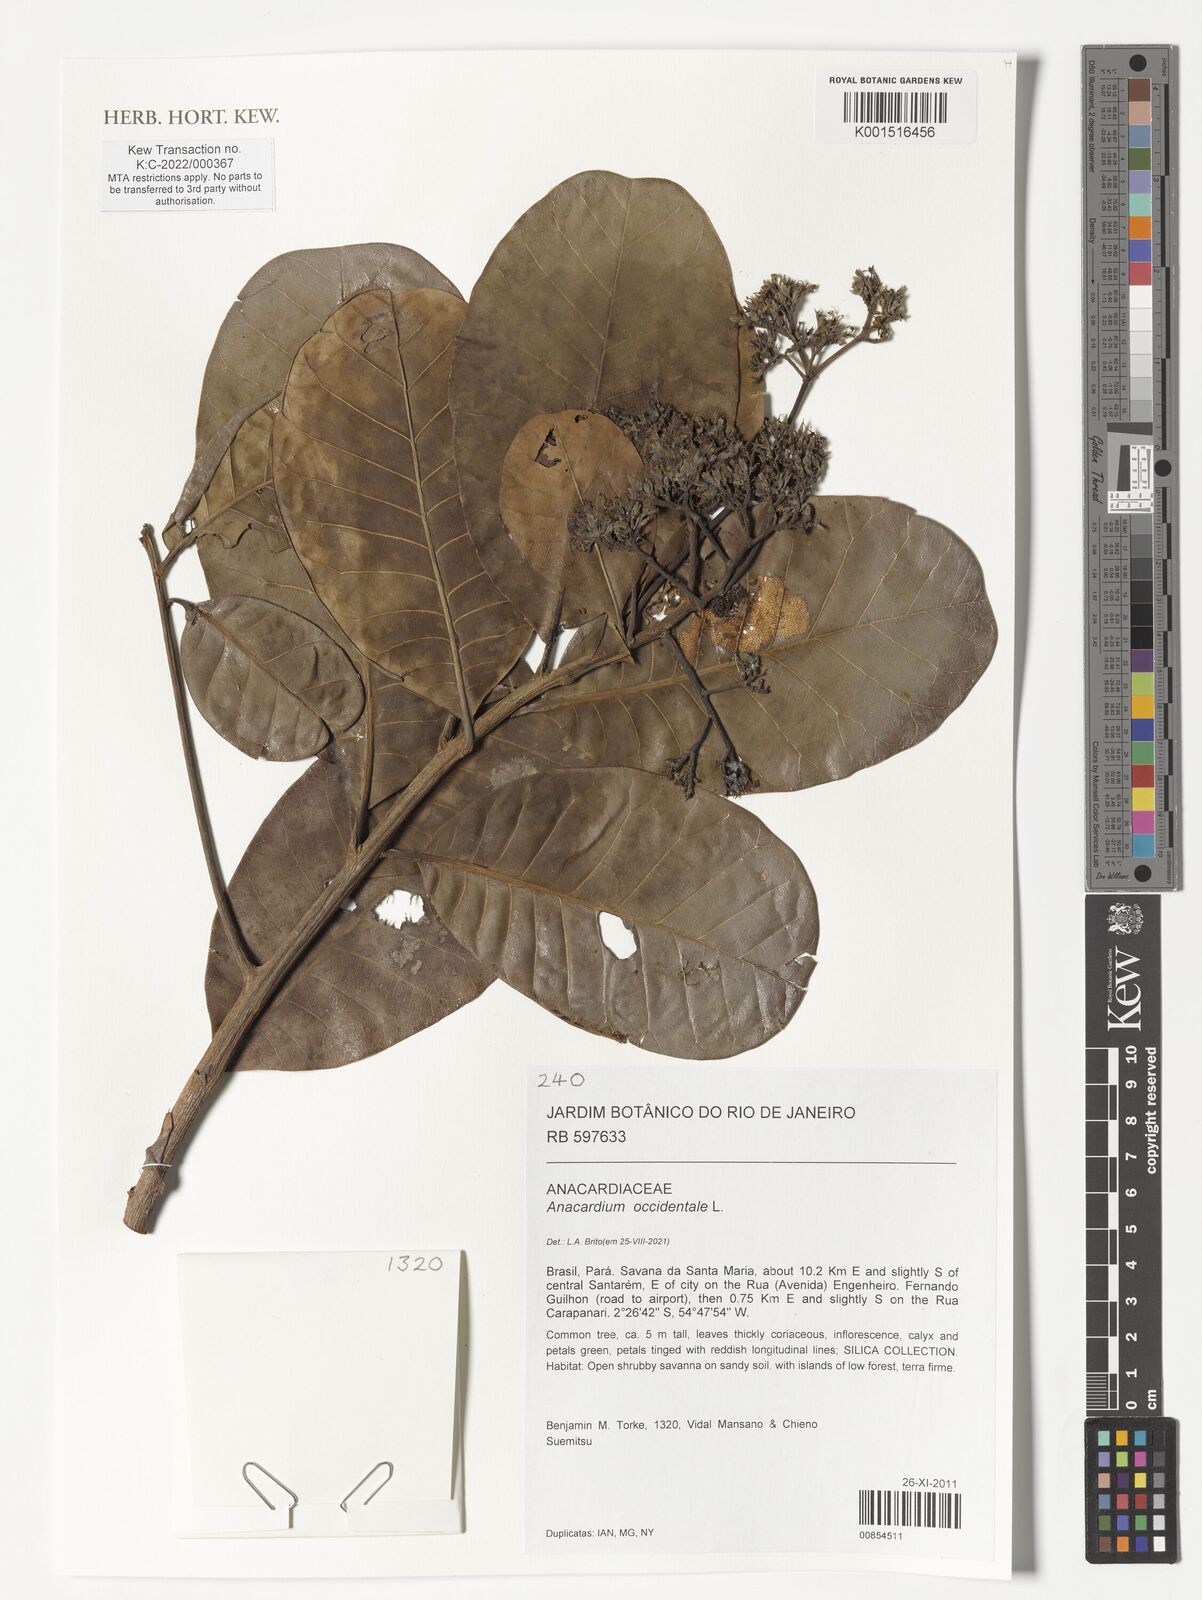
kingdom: Plantae
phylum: Tracheophyta
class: Magnoliopsida
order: Sapindales
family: Anacardiaceae
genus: Anacardium
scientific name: Anacardium occidentale
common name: Cashew
